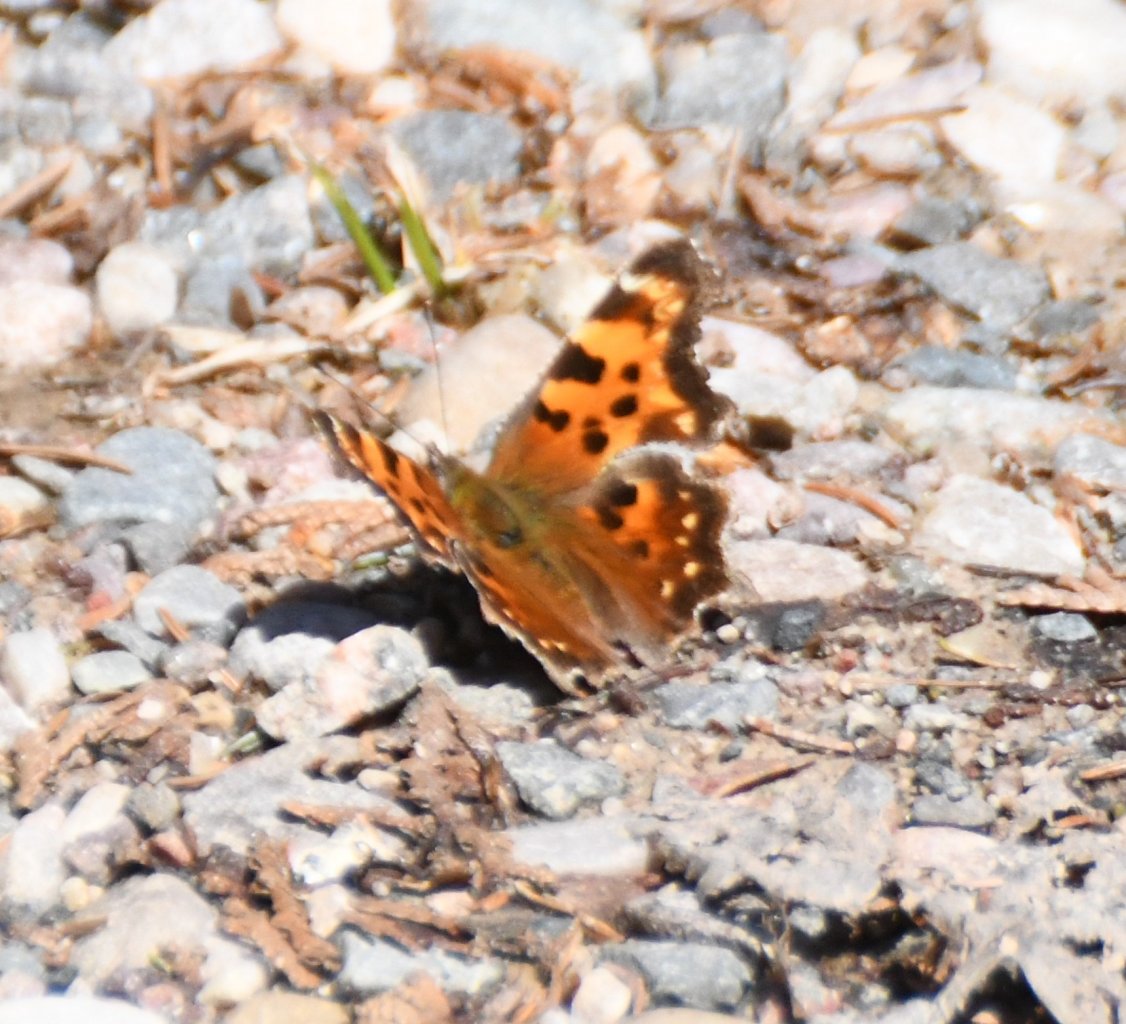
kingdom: Animalia
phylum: Arthropoda
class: Insecta
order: Lepidoptera
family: Nymphalidae
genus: Polygonia
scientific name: Polygonia faunus
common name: Green Comma
